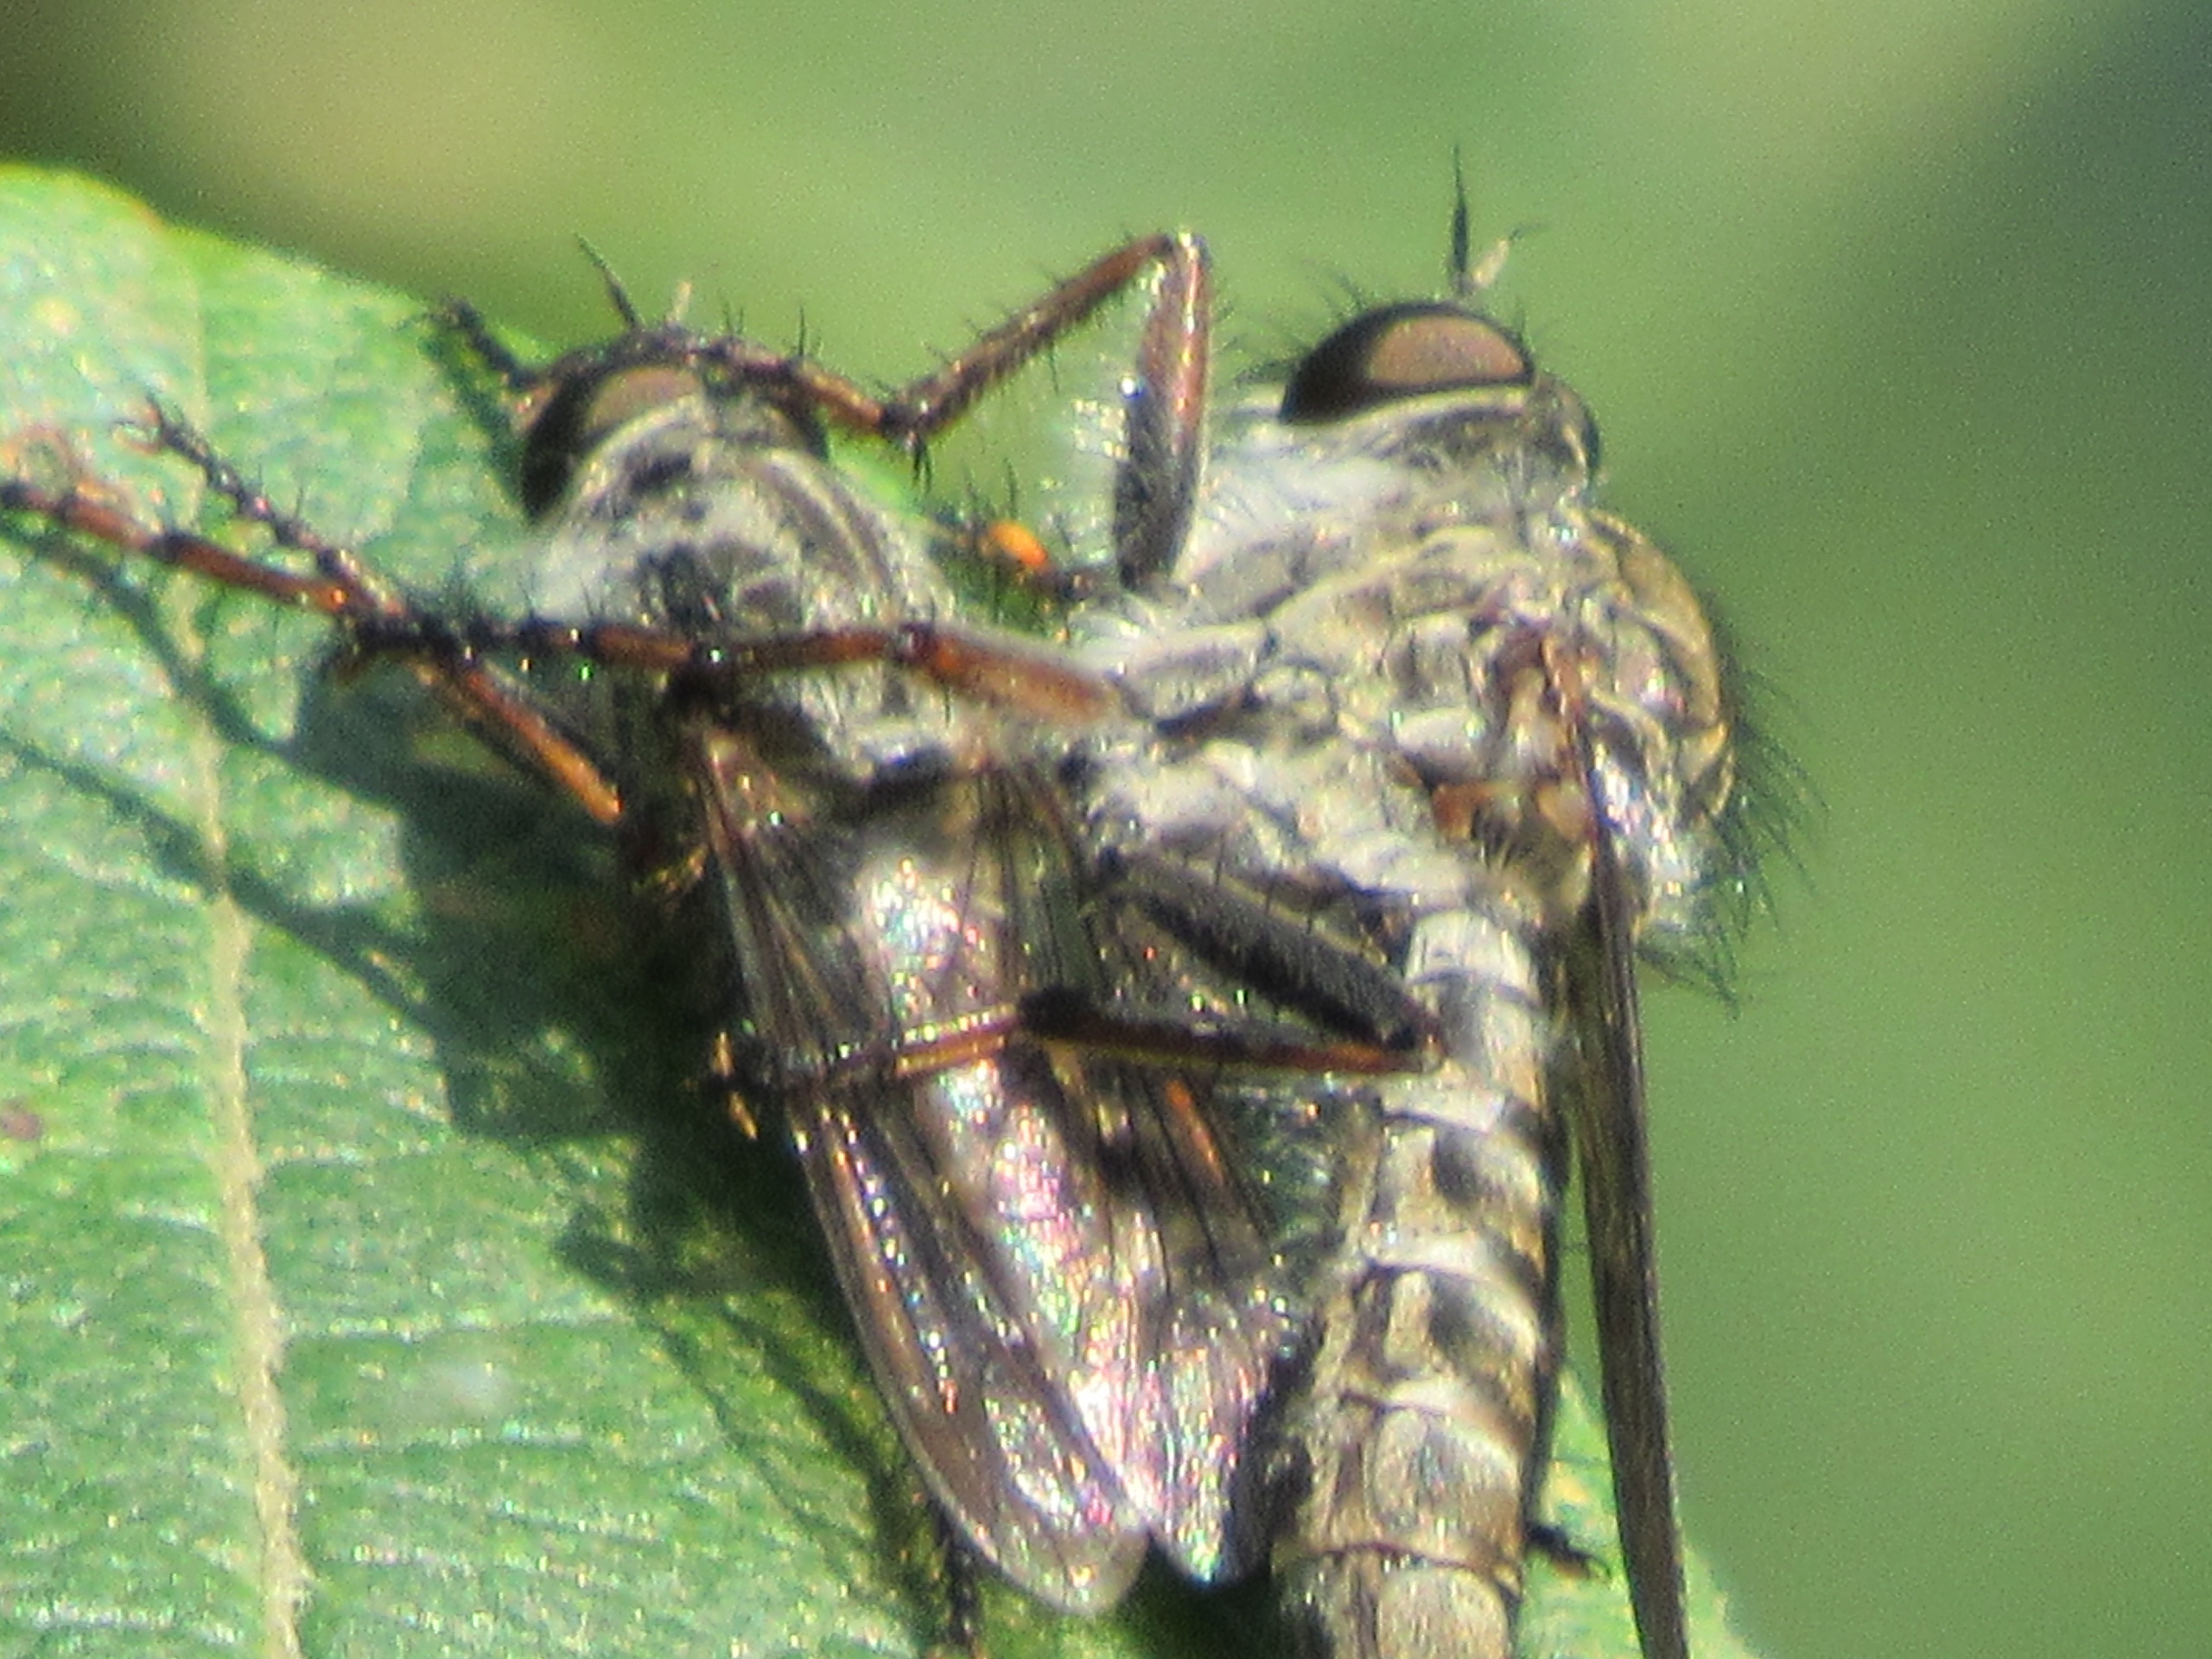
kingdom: Animalia
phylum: Arthropoda
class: Insecta
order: Diptera
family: Asilidae
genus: Machimus
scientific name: Machimus atricapillus
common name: Sort hårrovflue
